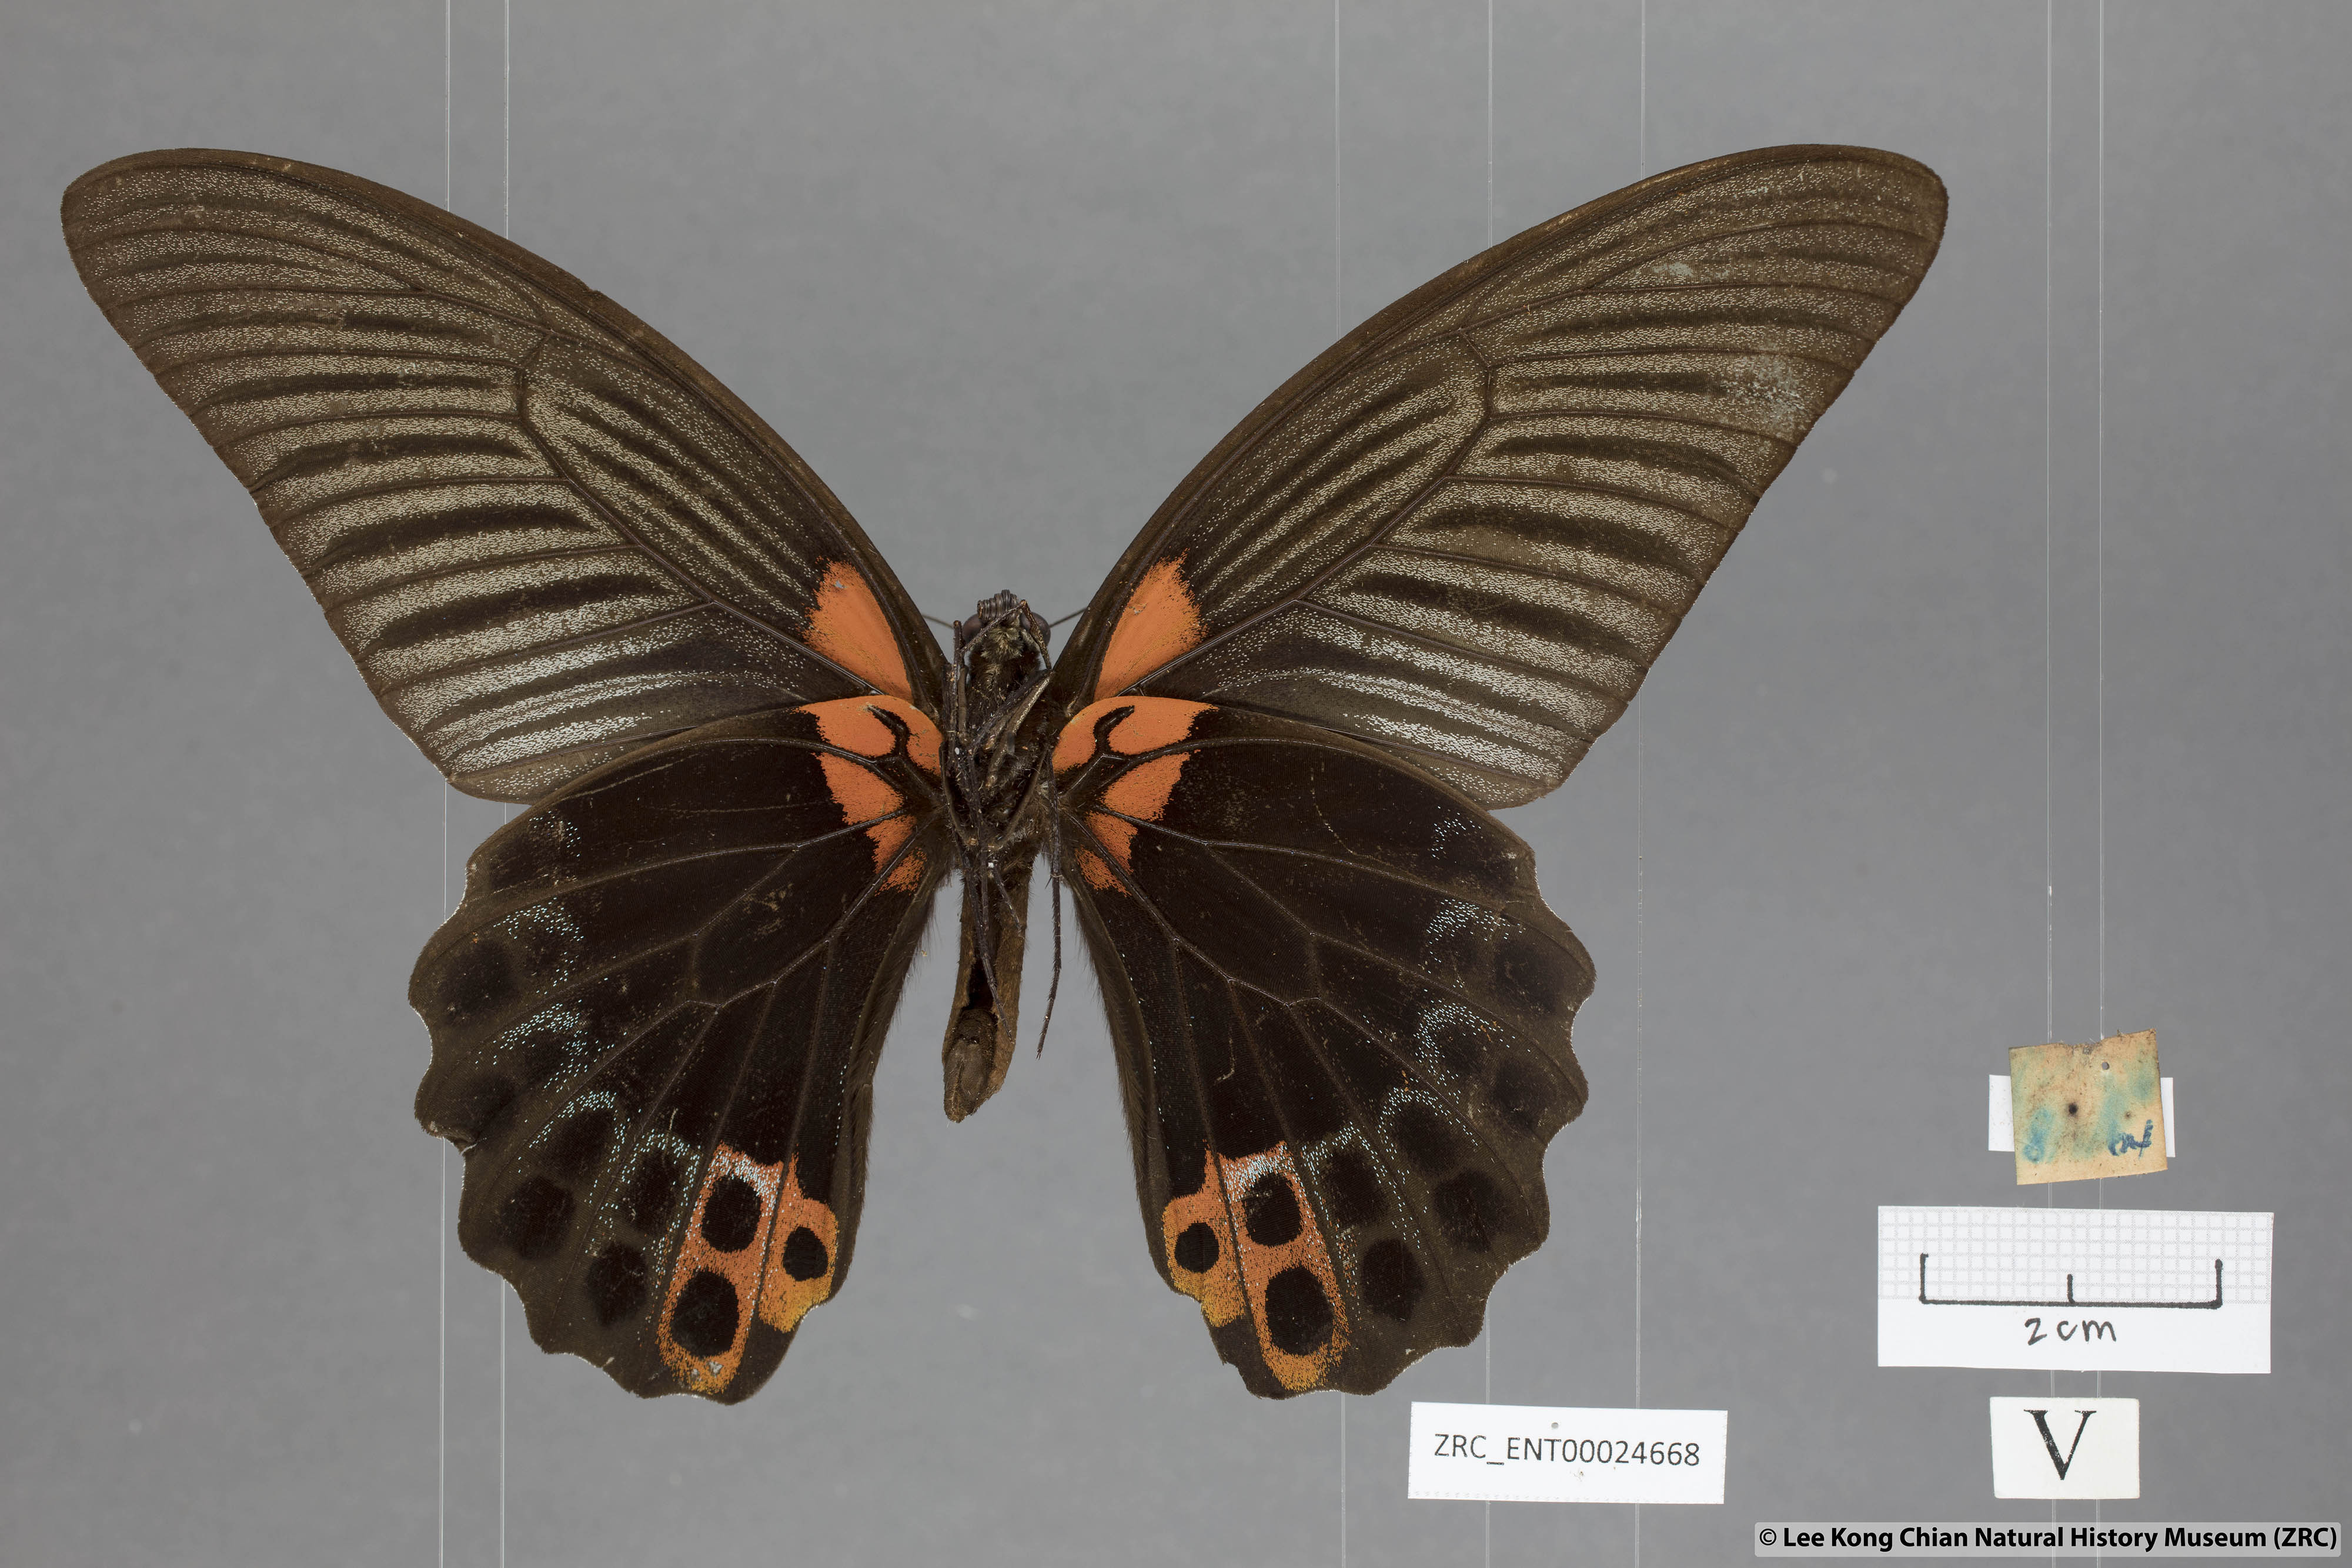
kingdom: Animalia
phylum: Arthropoda
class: Insecta
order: Lepidoptera
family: Papilionidae
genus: Papilio
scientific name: Papilio memnon
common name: Great mormon
